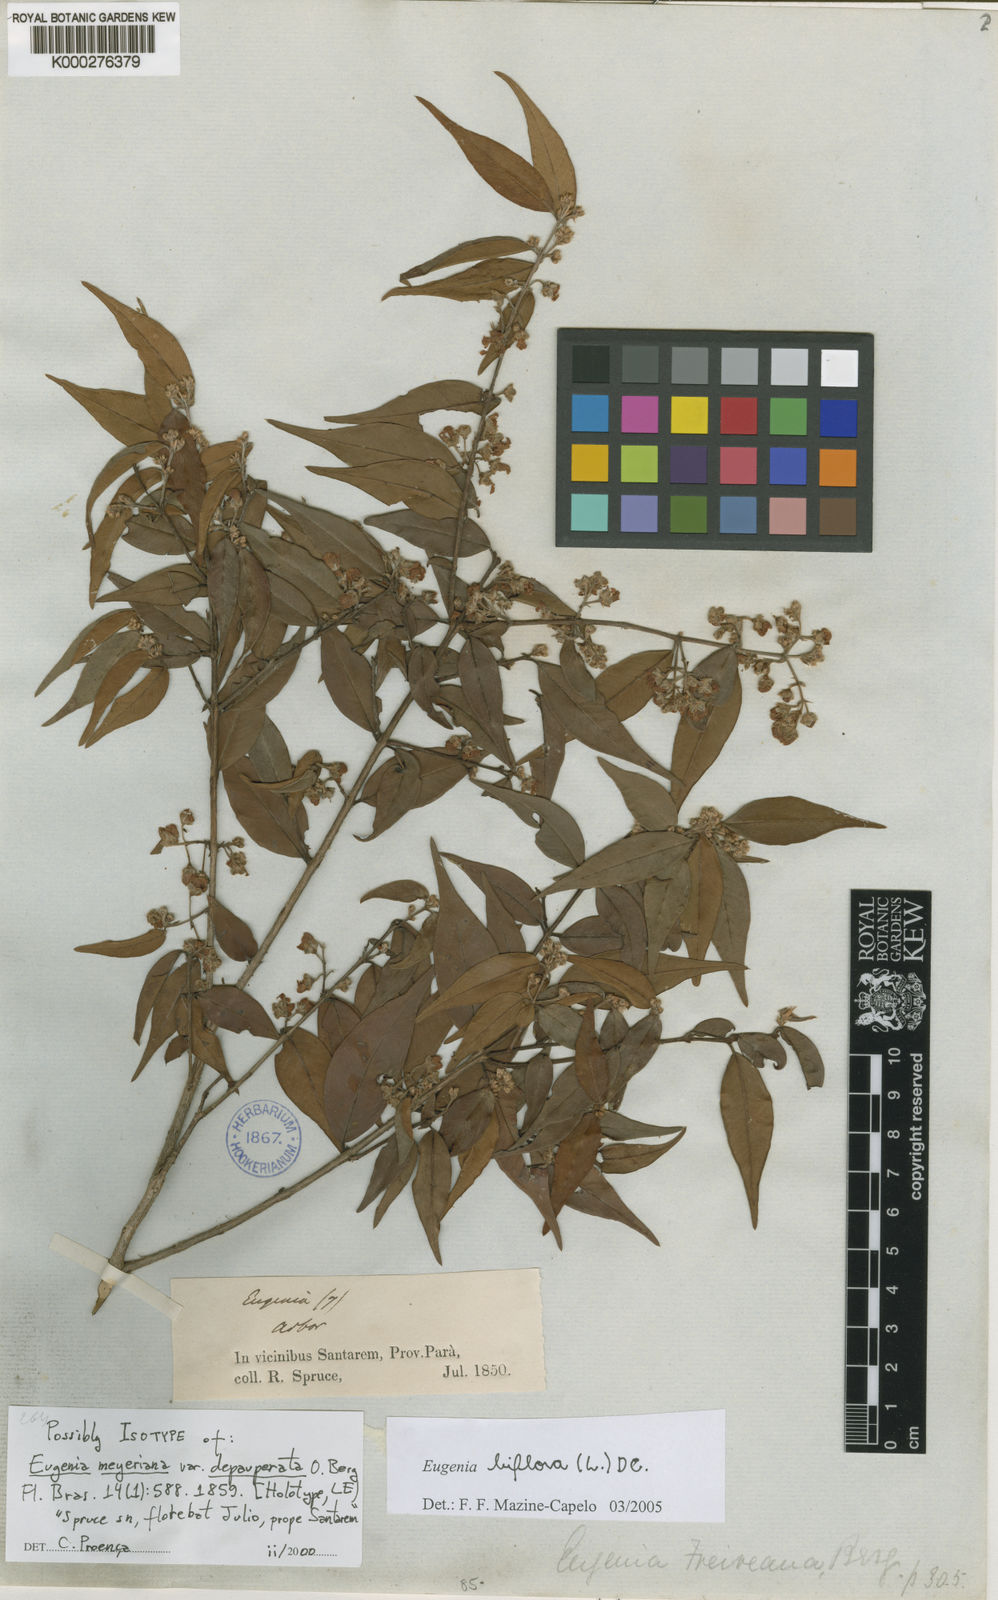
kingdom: Plantae
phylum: Tracheophyta
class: Magnoliopsida
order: Myrtales
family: Myrtaceae
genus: Eugenia
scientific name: Eugenia biflora
